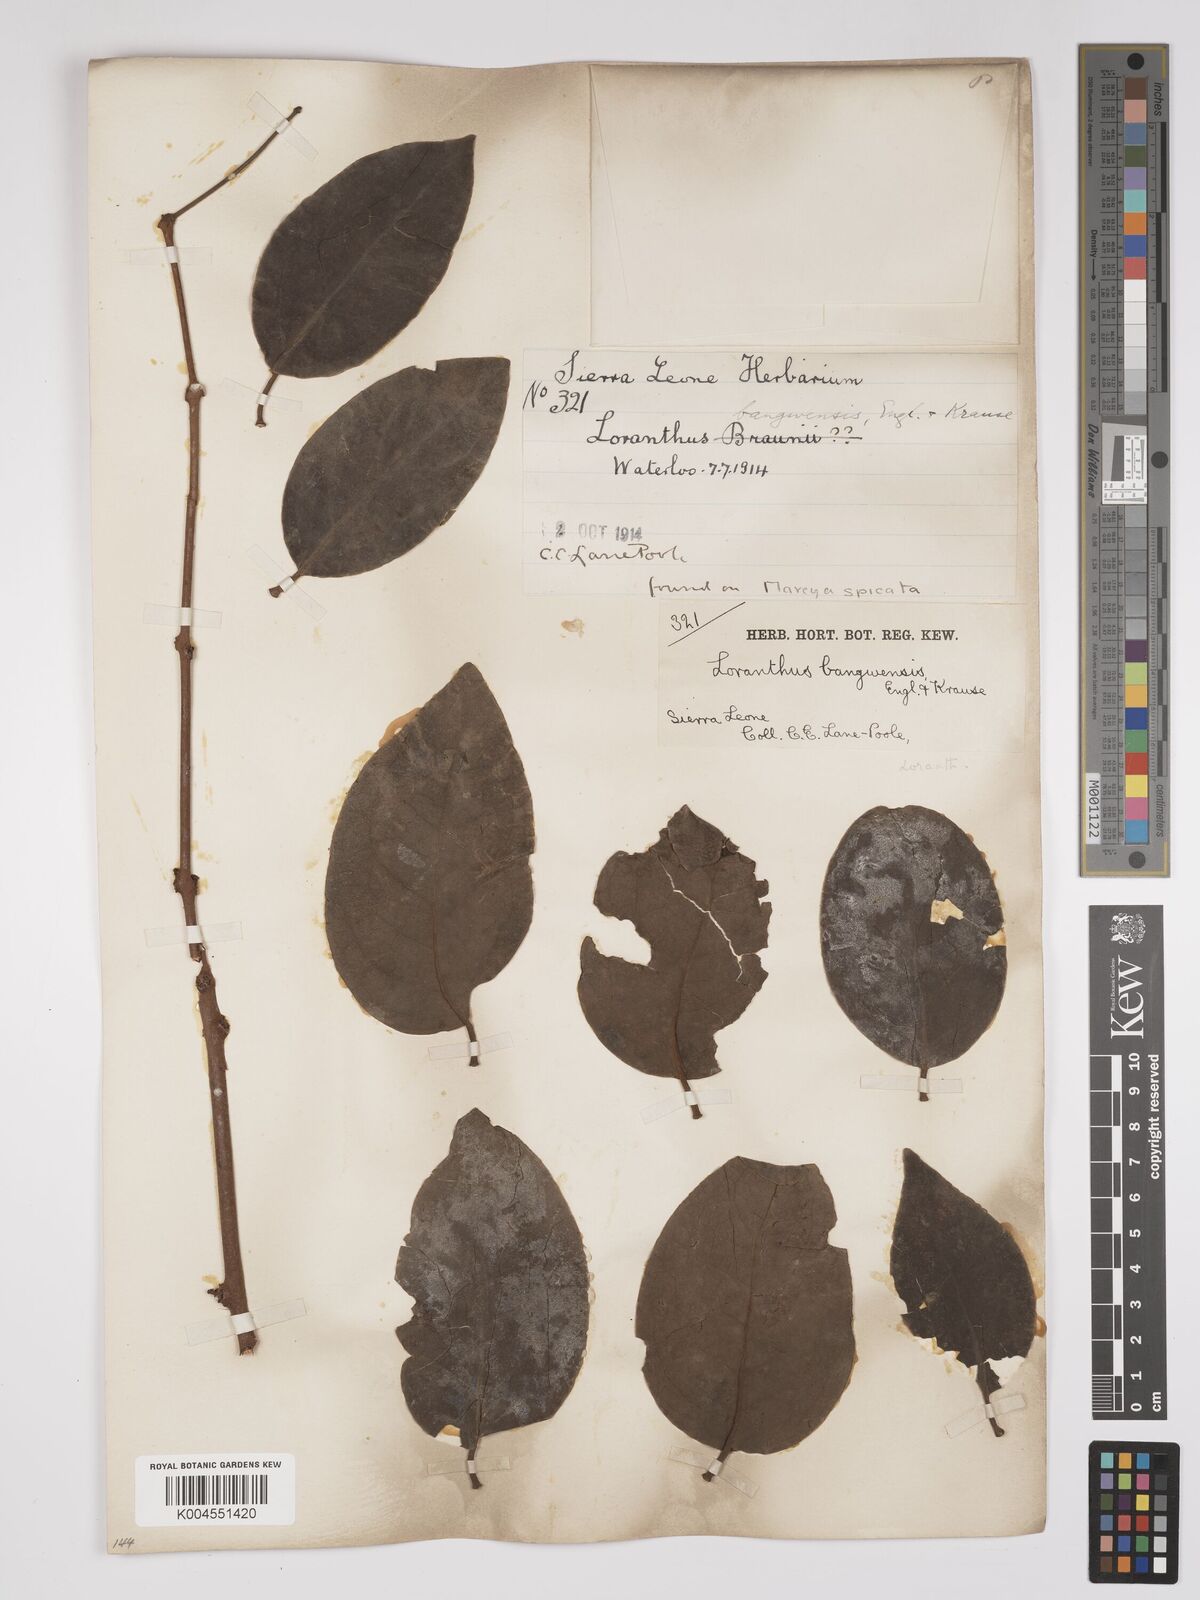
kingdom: Plantae
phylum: Tracheophyta
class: Magnoliopsida
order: Santalales
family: Loranthaceae
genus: Tapinanthus
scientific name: Tapinanthus bangwensis
